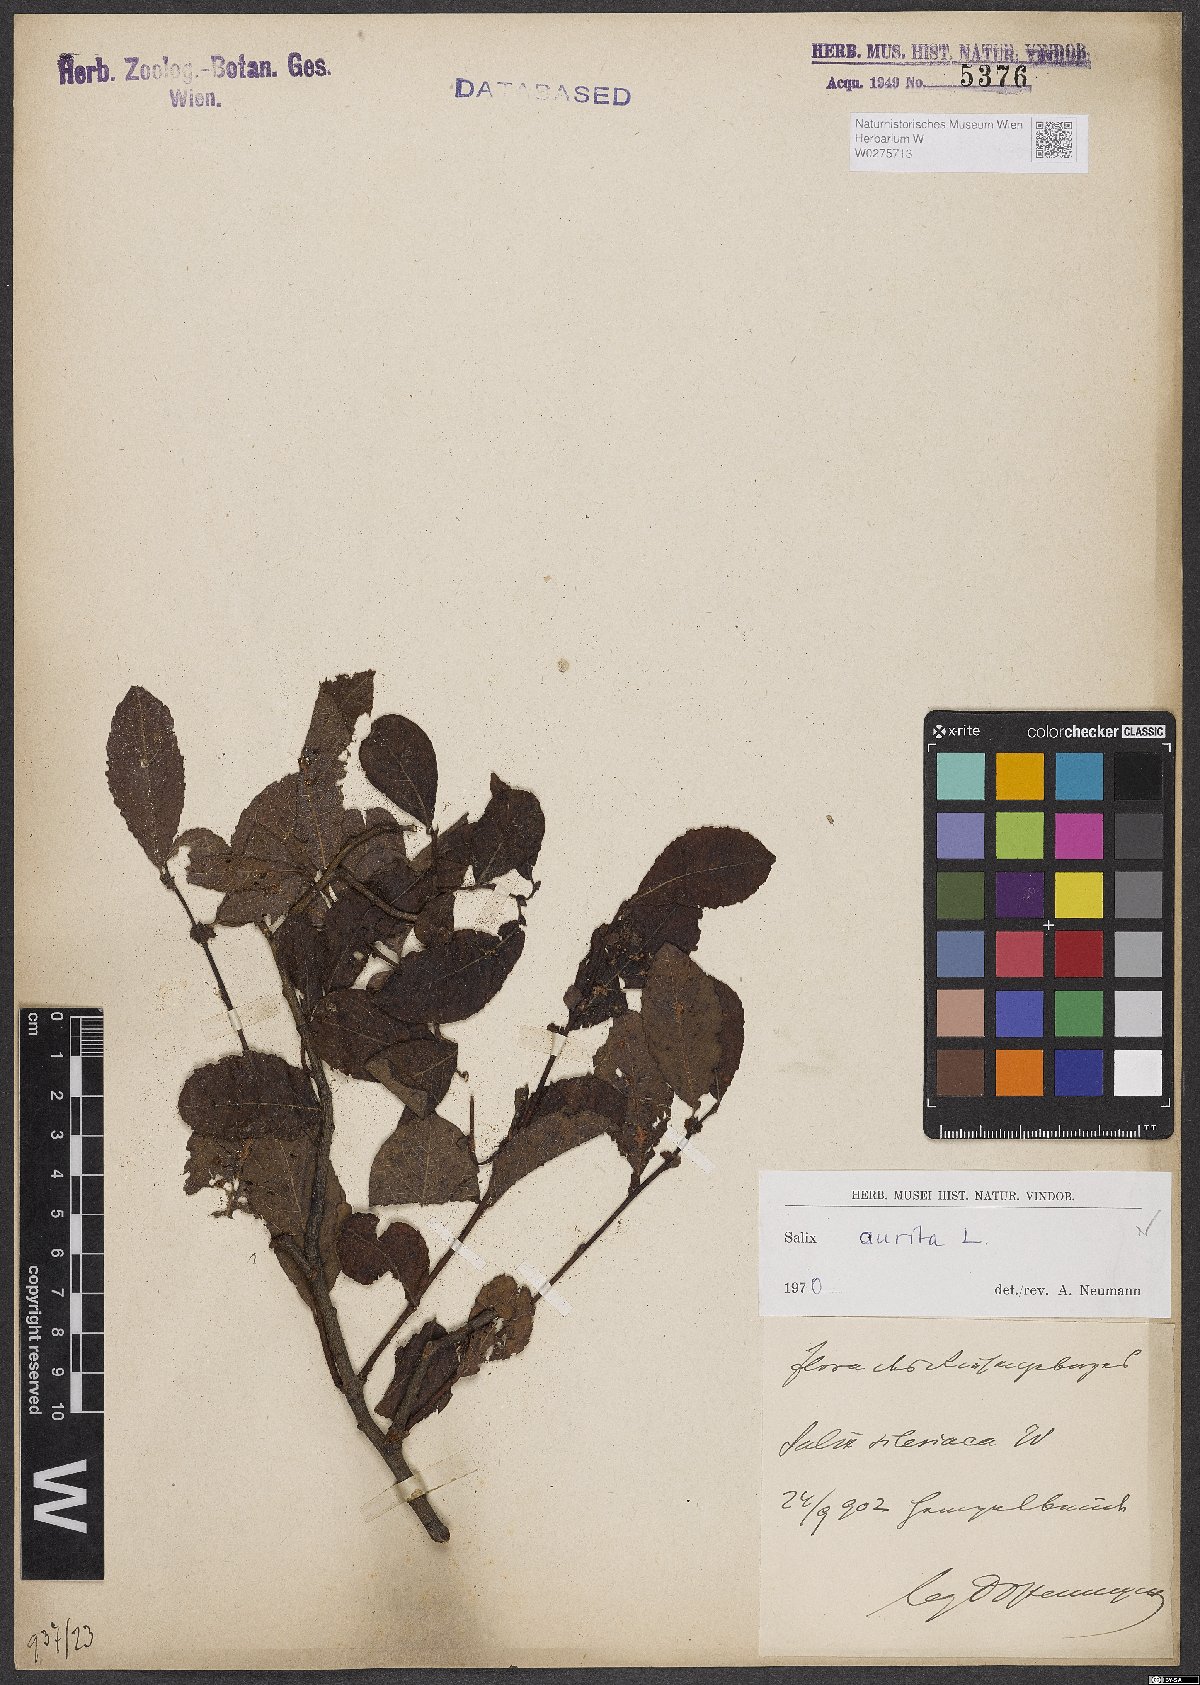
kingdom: Plantae
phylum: Tracheophyta
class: Magnoliopsida
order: Malpighiales
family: Salicaceae
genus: Salix
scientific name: Salix aurita
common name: Eared willow
